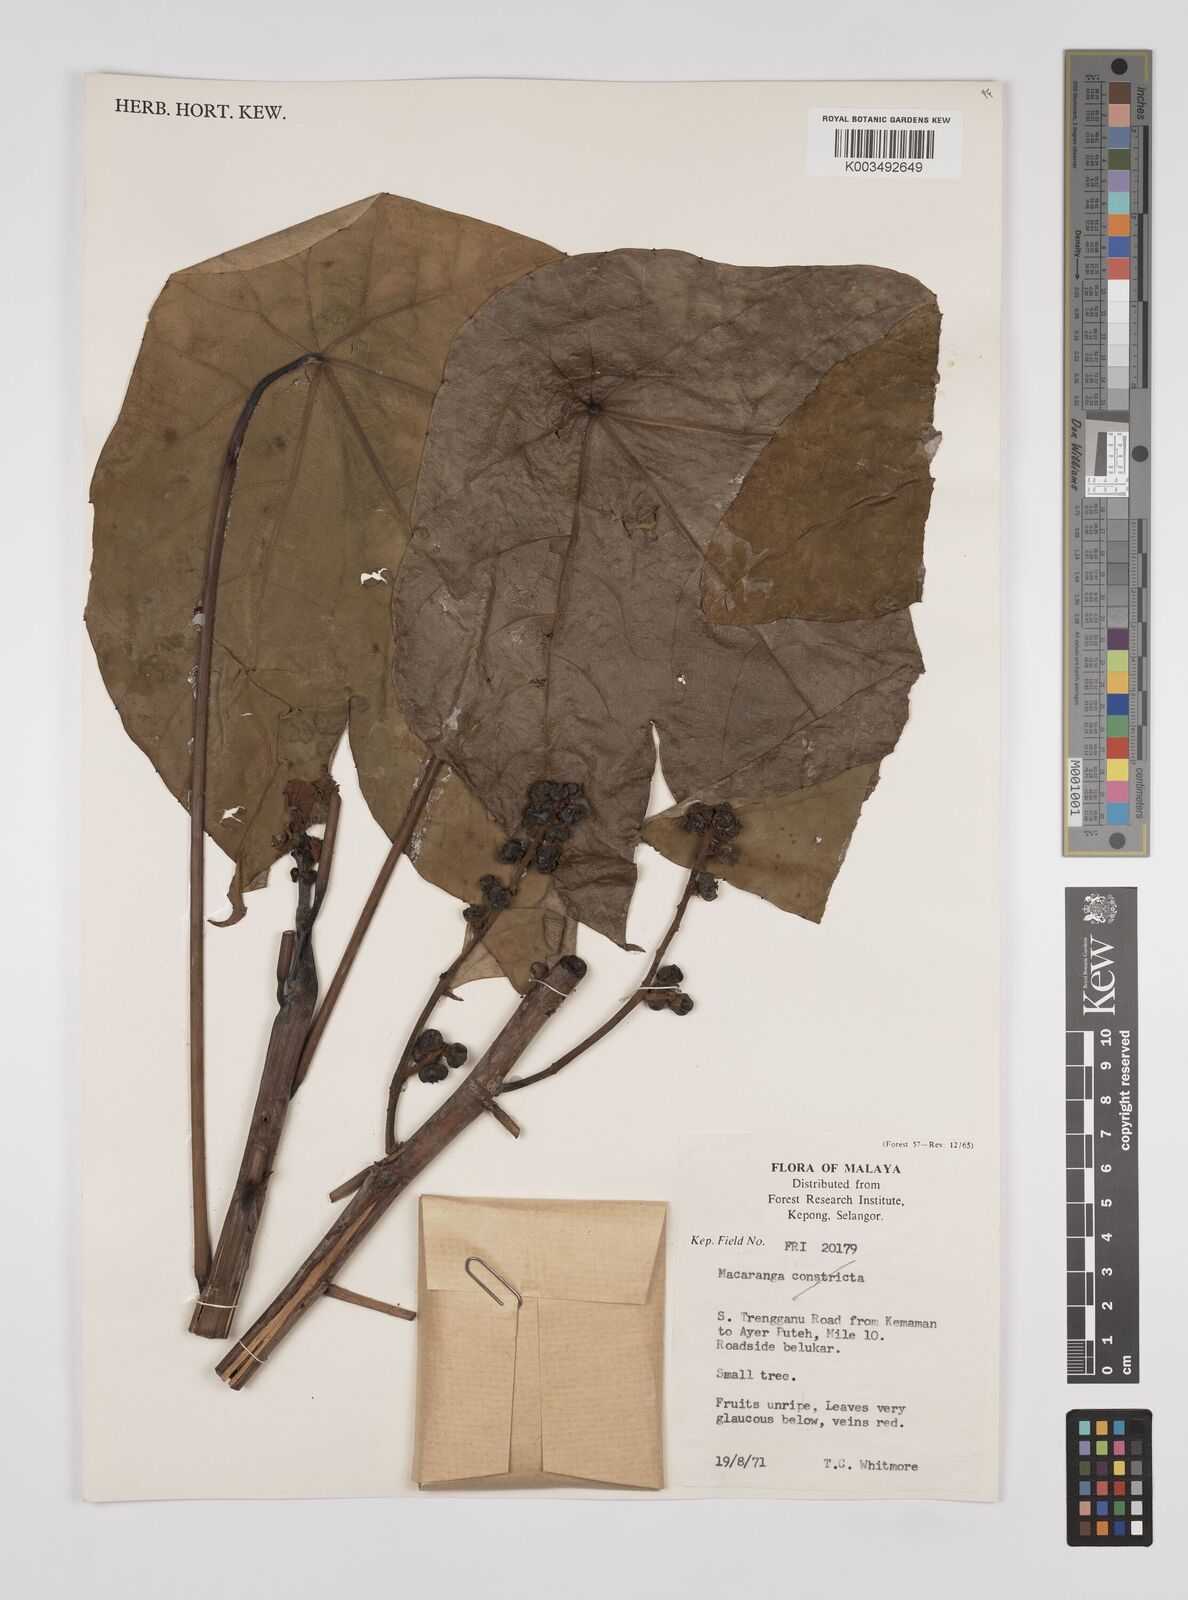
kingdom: Plantae
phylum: Tracheophyta
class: Magnoliopsida
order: Malpighiales
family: Euphorbiaceae
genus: Macaranga
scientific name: Macaranga
